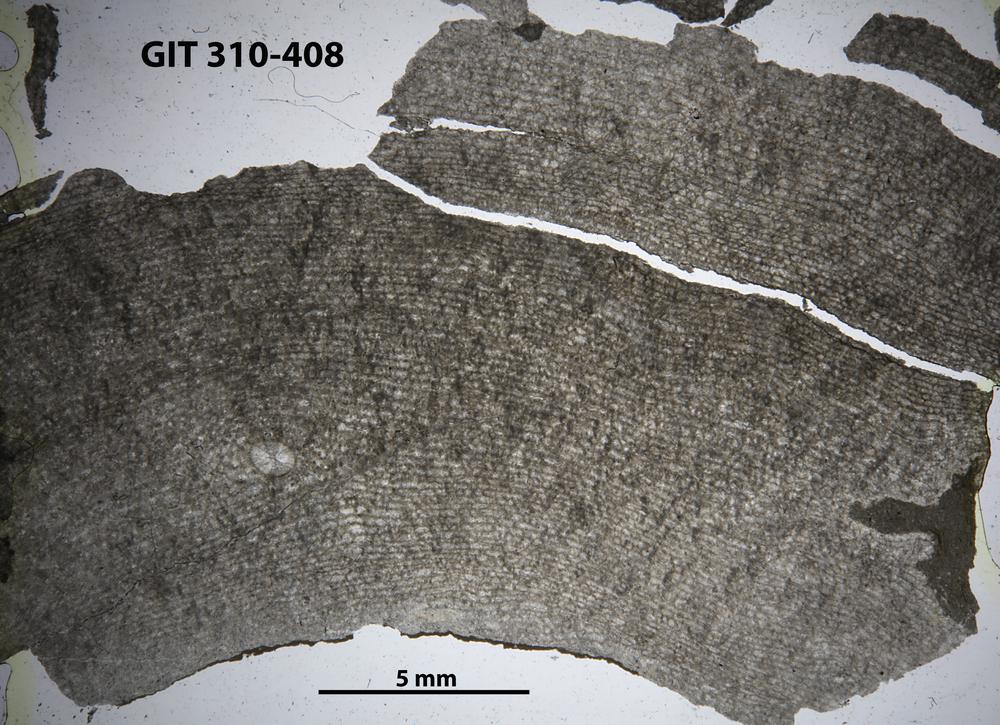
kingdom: Animalia
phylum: Porifera
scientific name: Porifera
